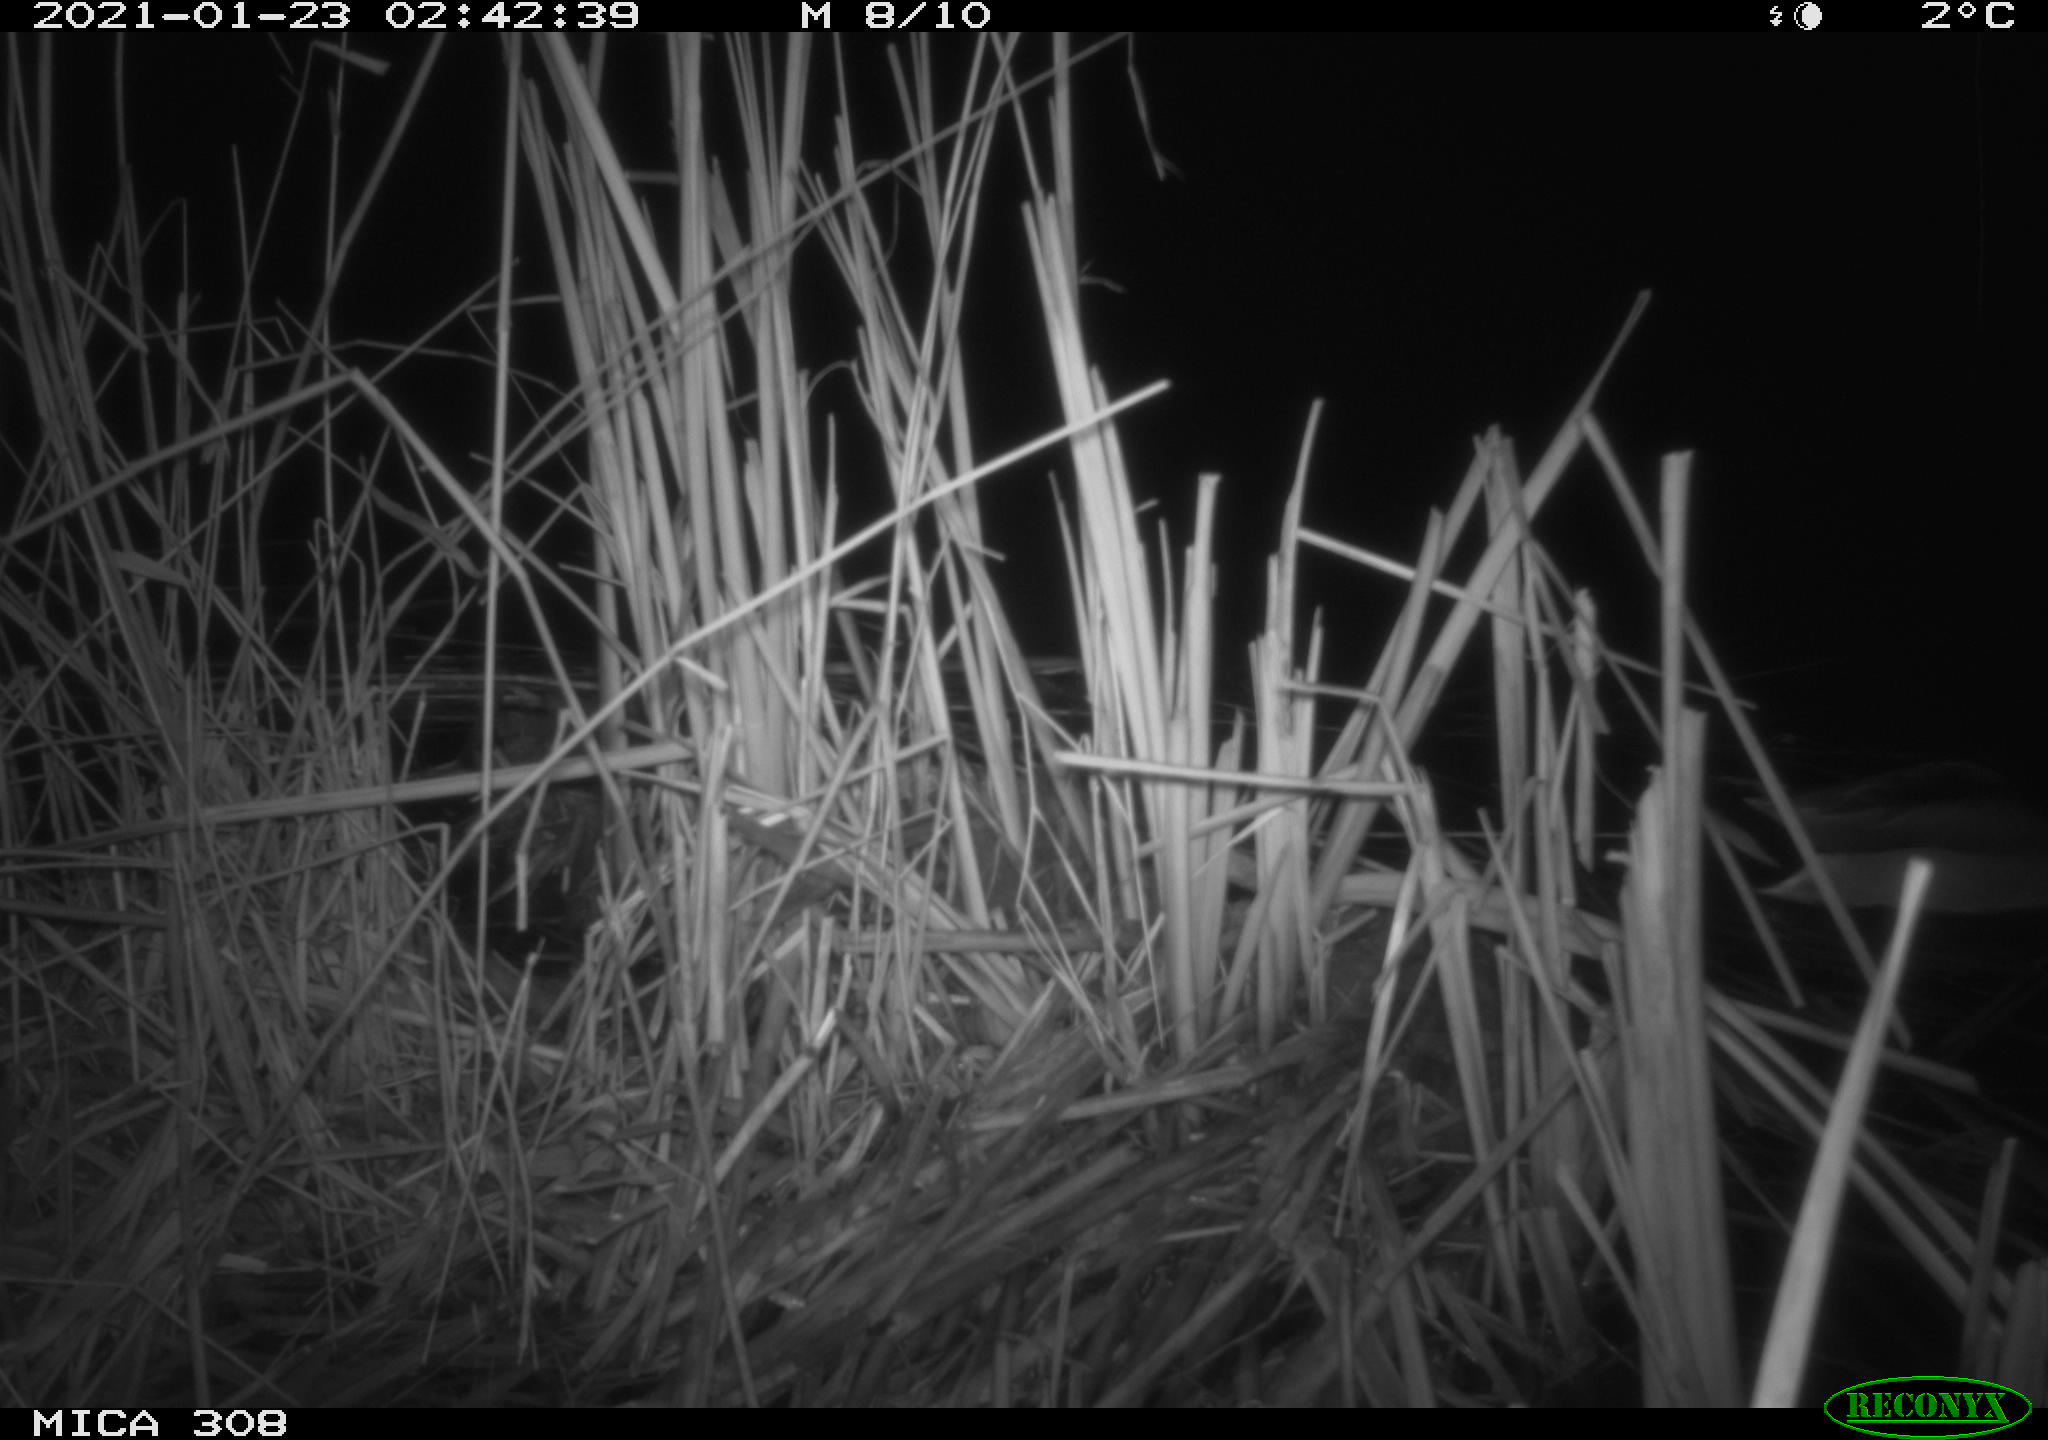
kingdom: Animalia
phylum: Chordata
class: Aves
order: Anseriformes
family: Anatidae
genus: Anas
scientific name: Anas platyrhynchos
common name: Mallard
